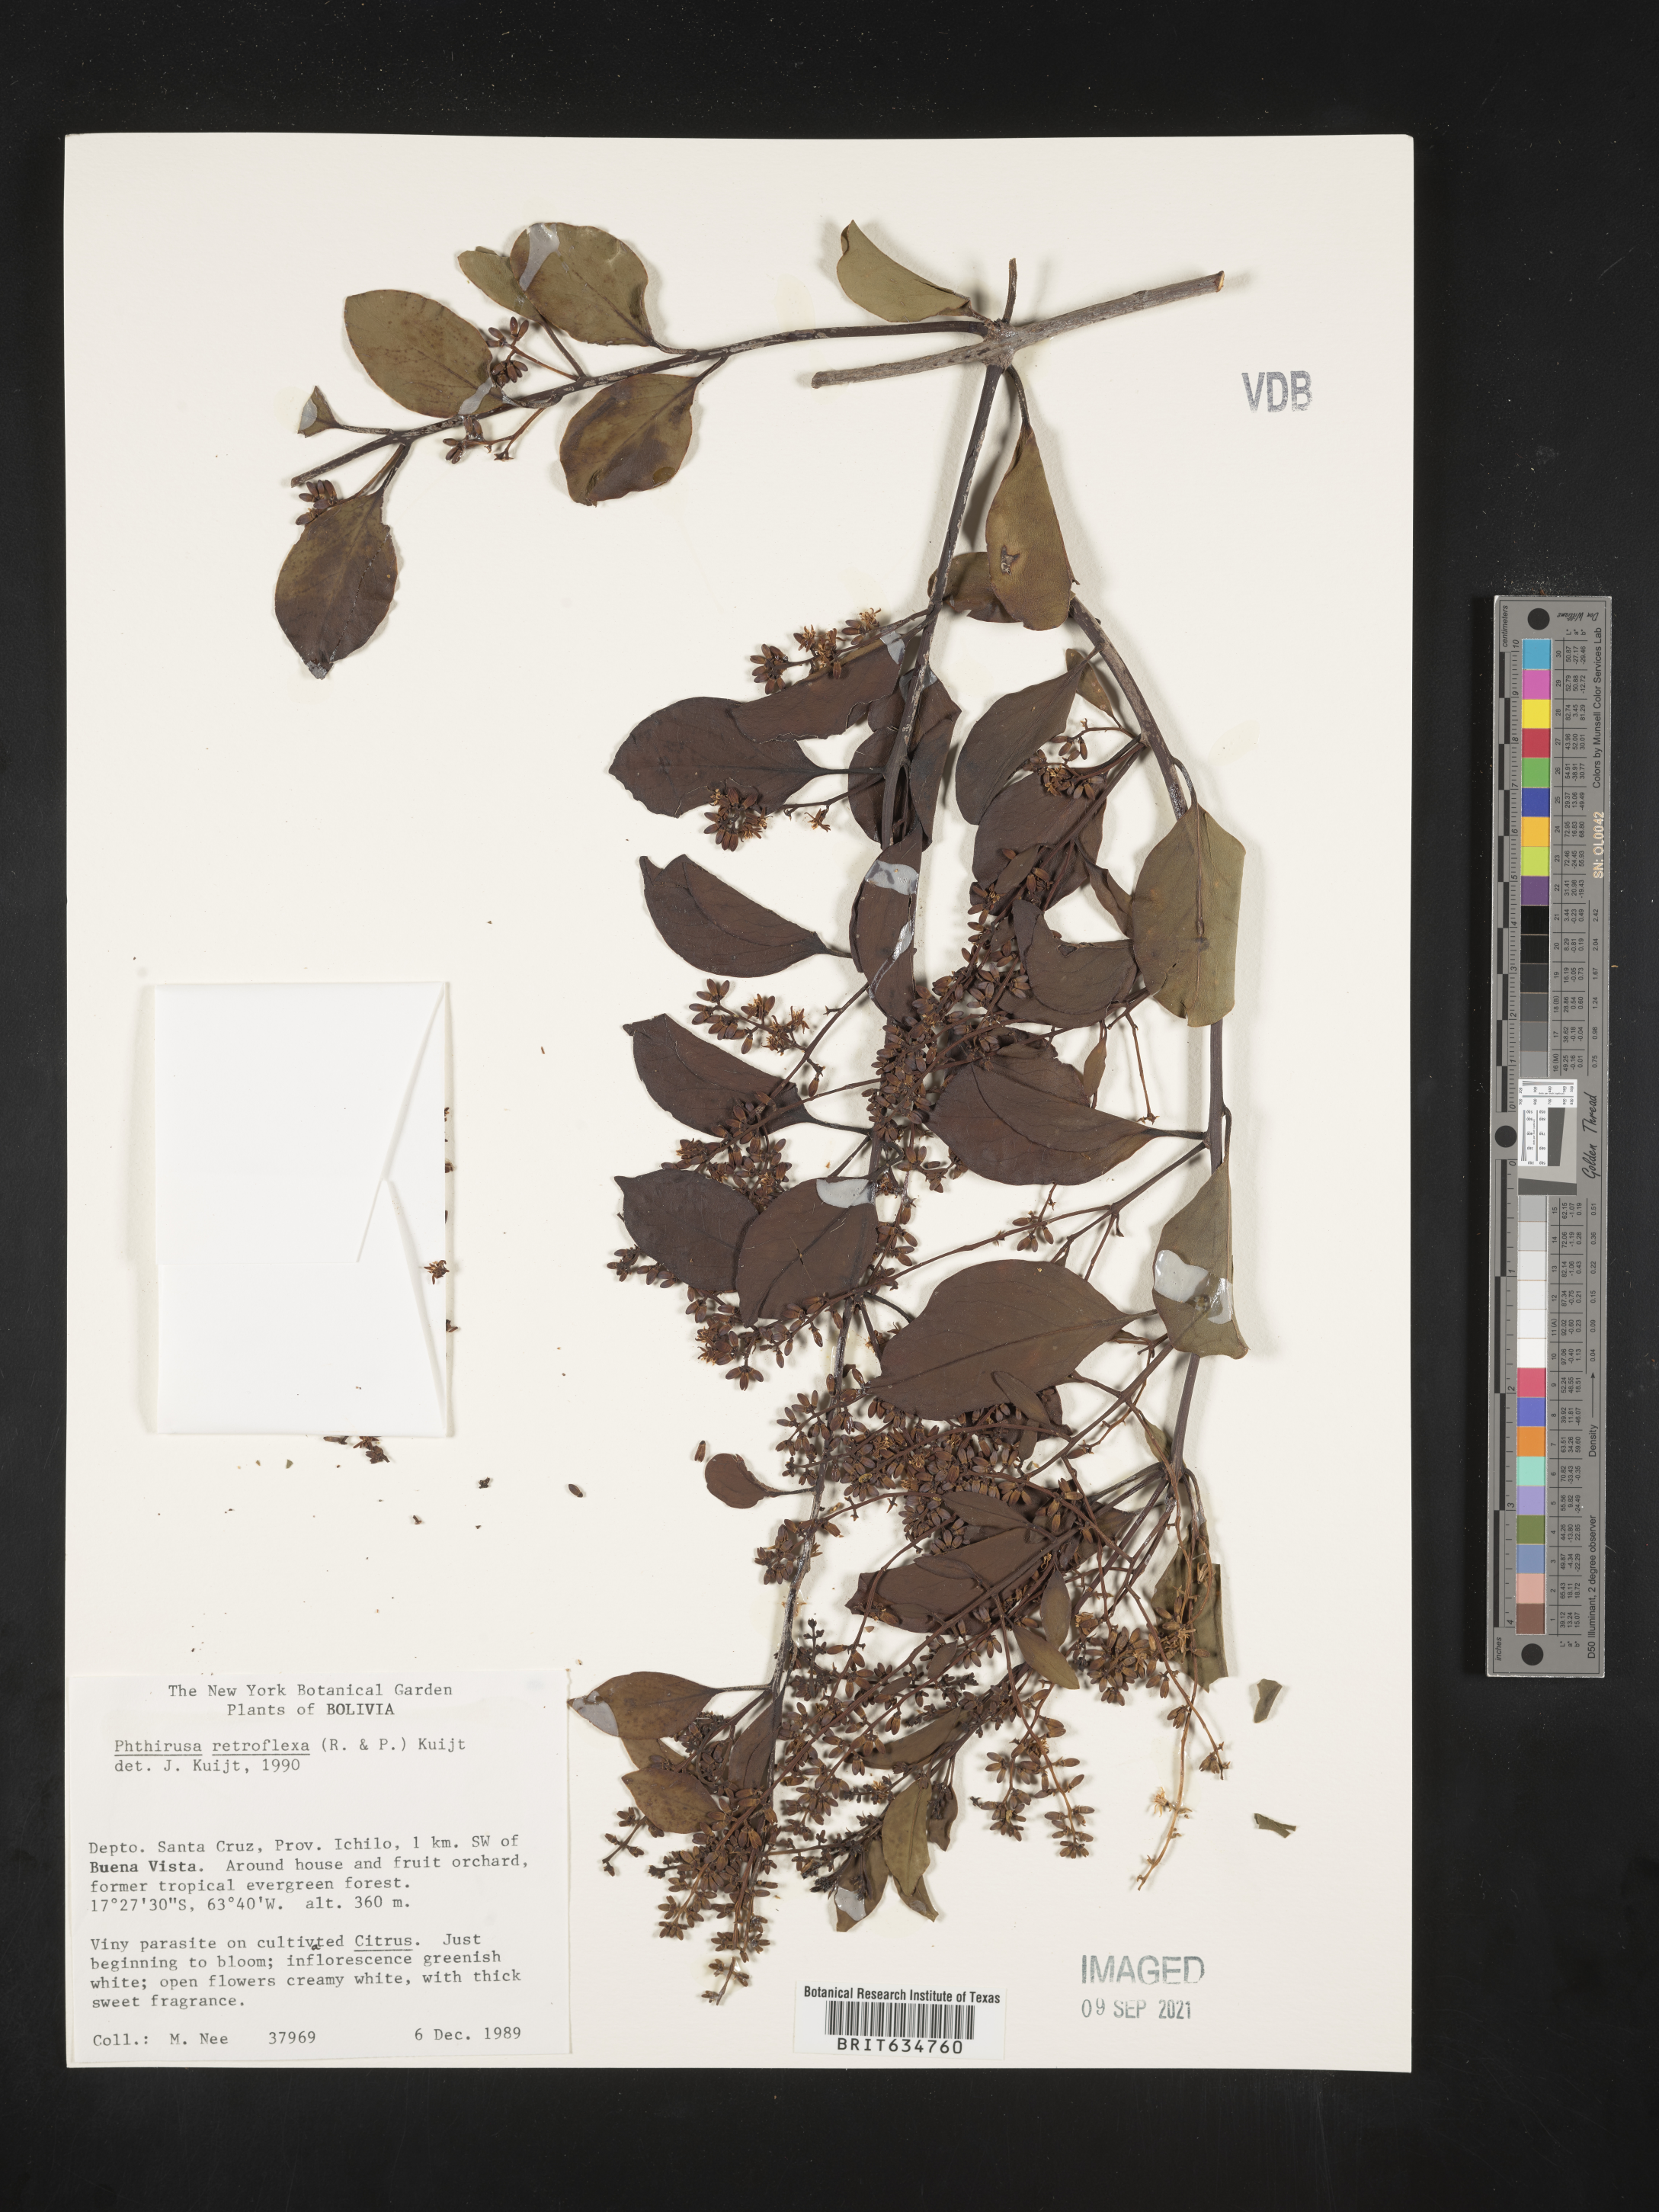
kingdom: Plantae
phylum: Tracheophyta
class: Magnoliopsida
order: Santalales
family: Loranthaceae
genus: Phthirusa
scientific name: Phthirusa
